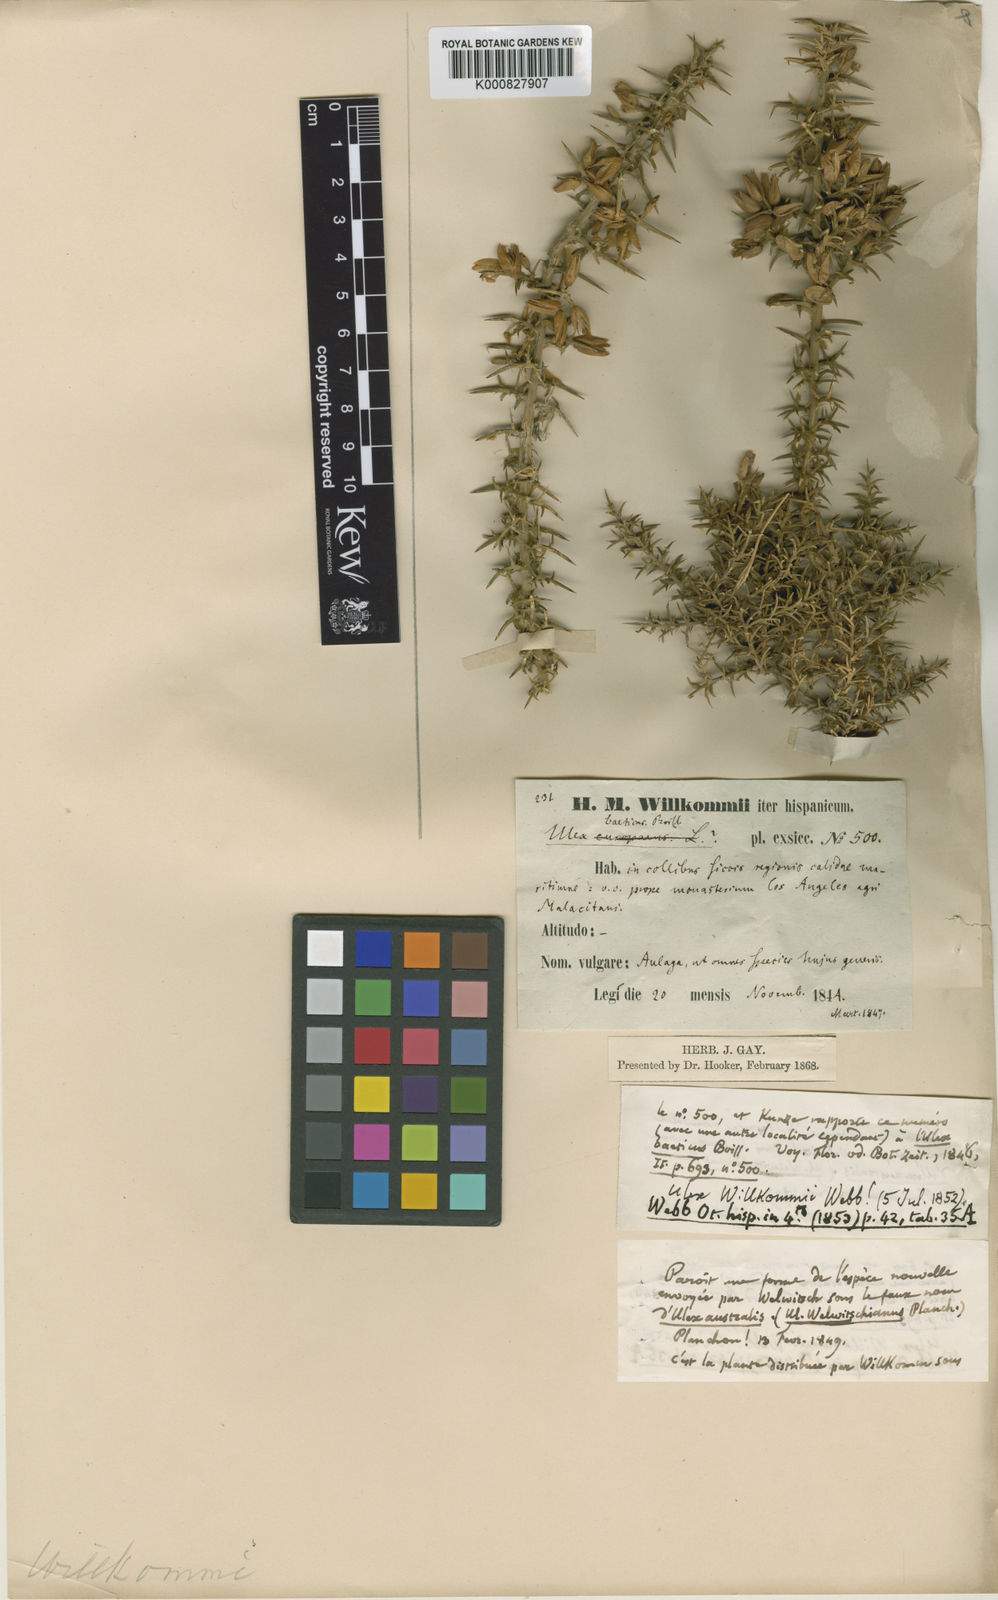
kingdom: Plantae
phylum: Tracheophyta
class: Magnoliopsida
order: Fabales
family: Fabaceae
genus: Ulex
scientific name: Ulex parviflorus
